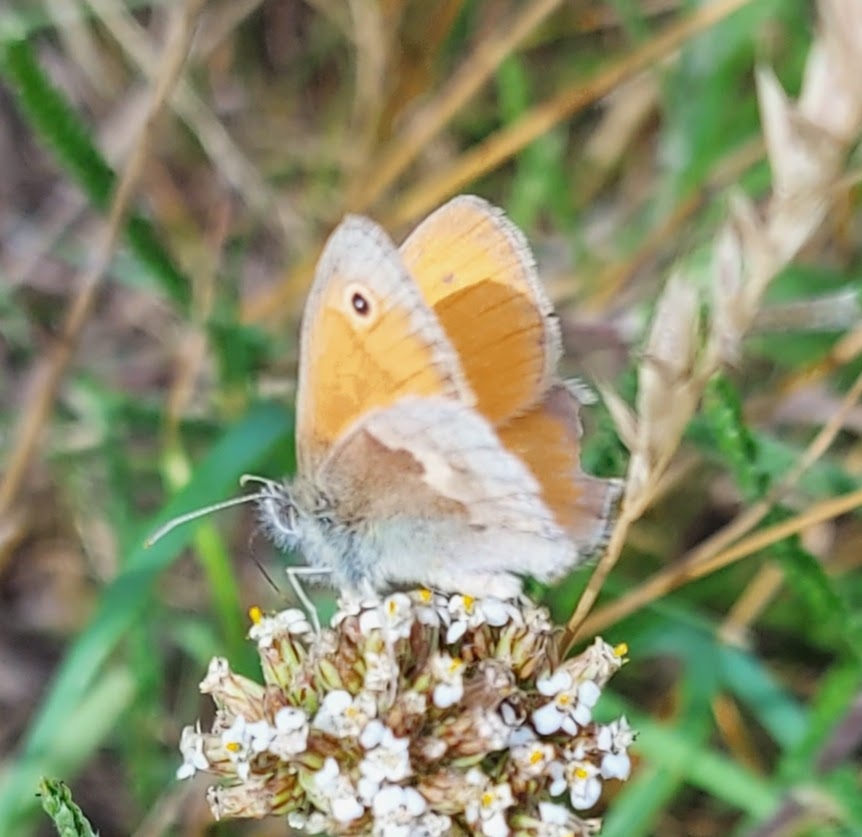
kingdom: Animalia
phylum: Arthropoda
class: Insecta
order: Lepidoptera
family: Nymphalidae
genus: Coenonympha
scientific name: Coenonympha pamphilus
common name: Okkergul randøje
